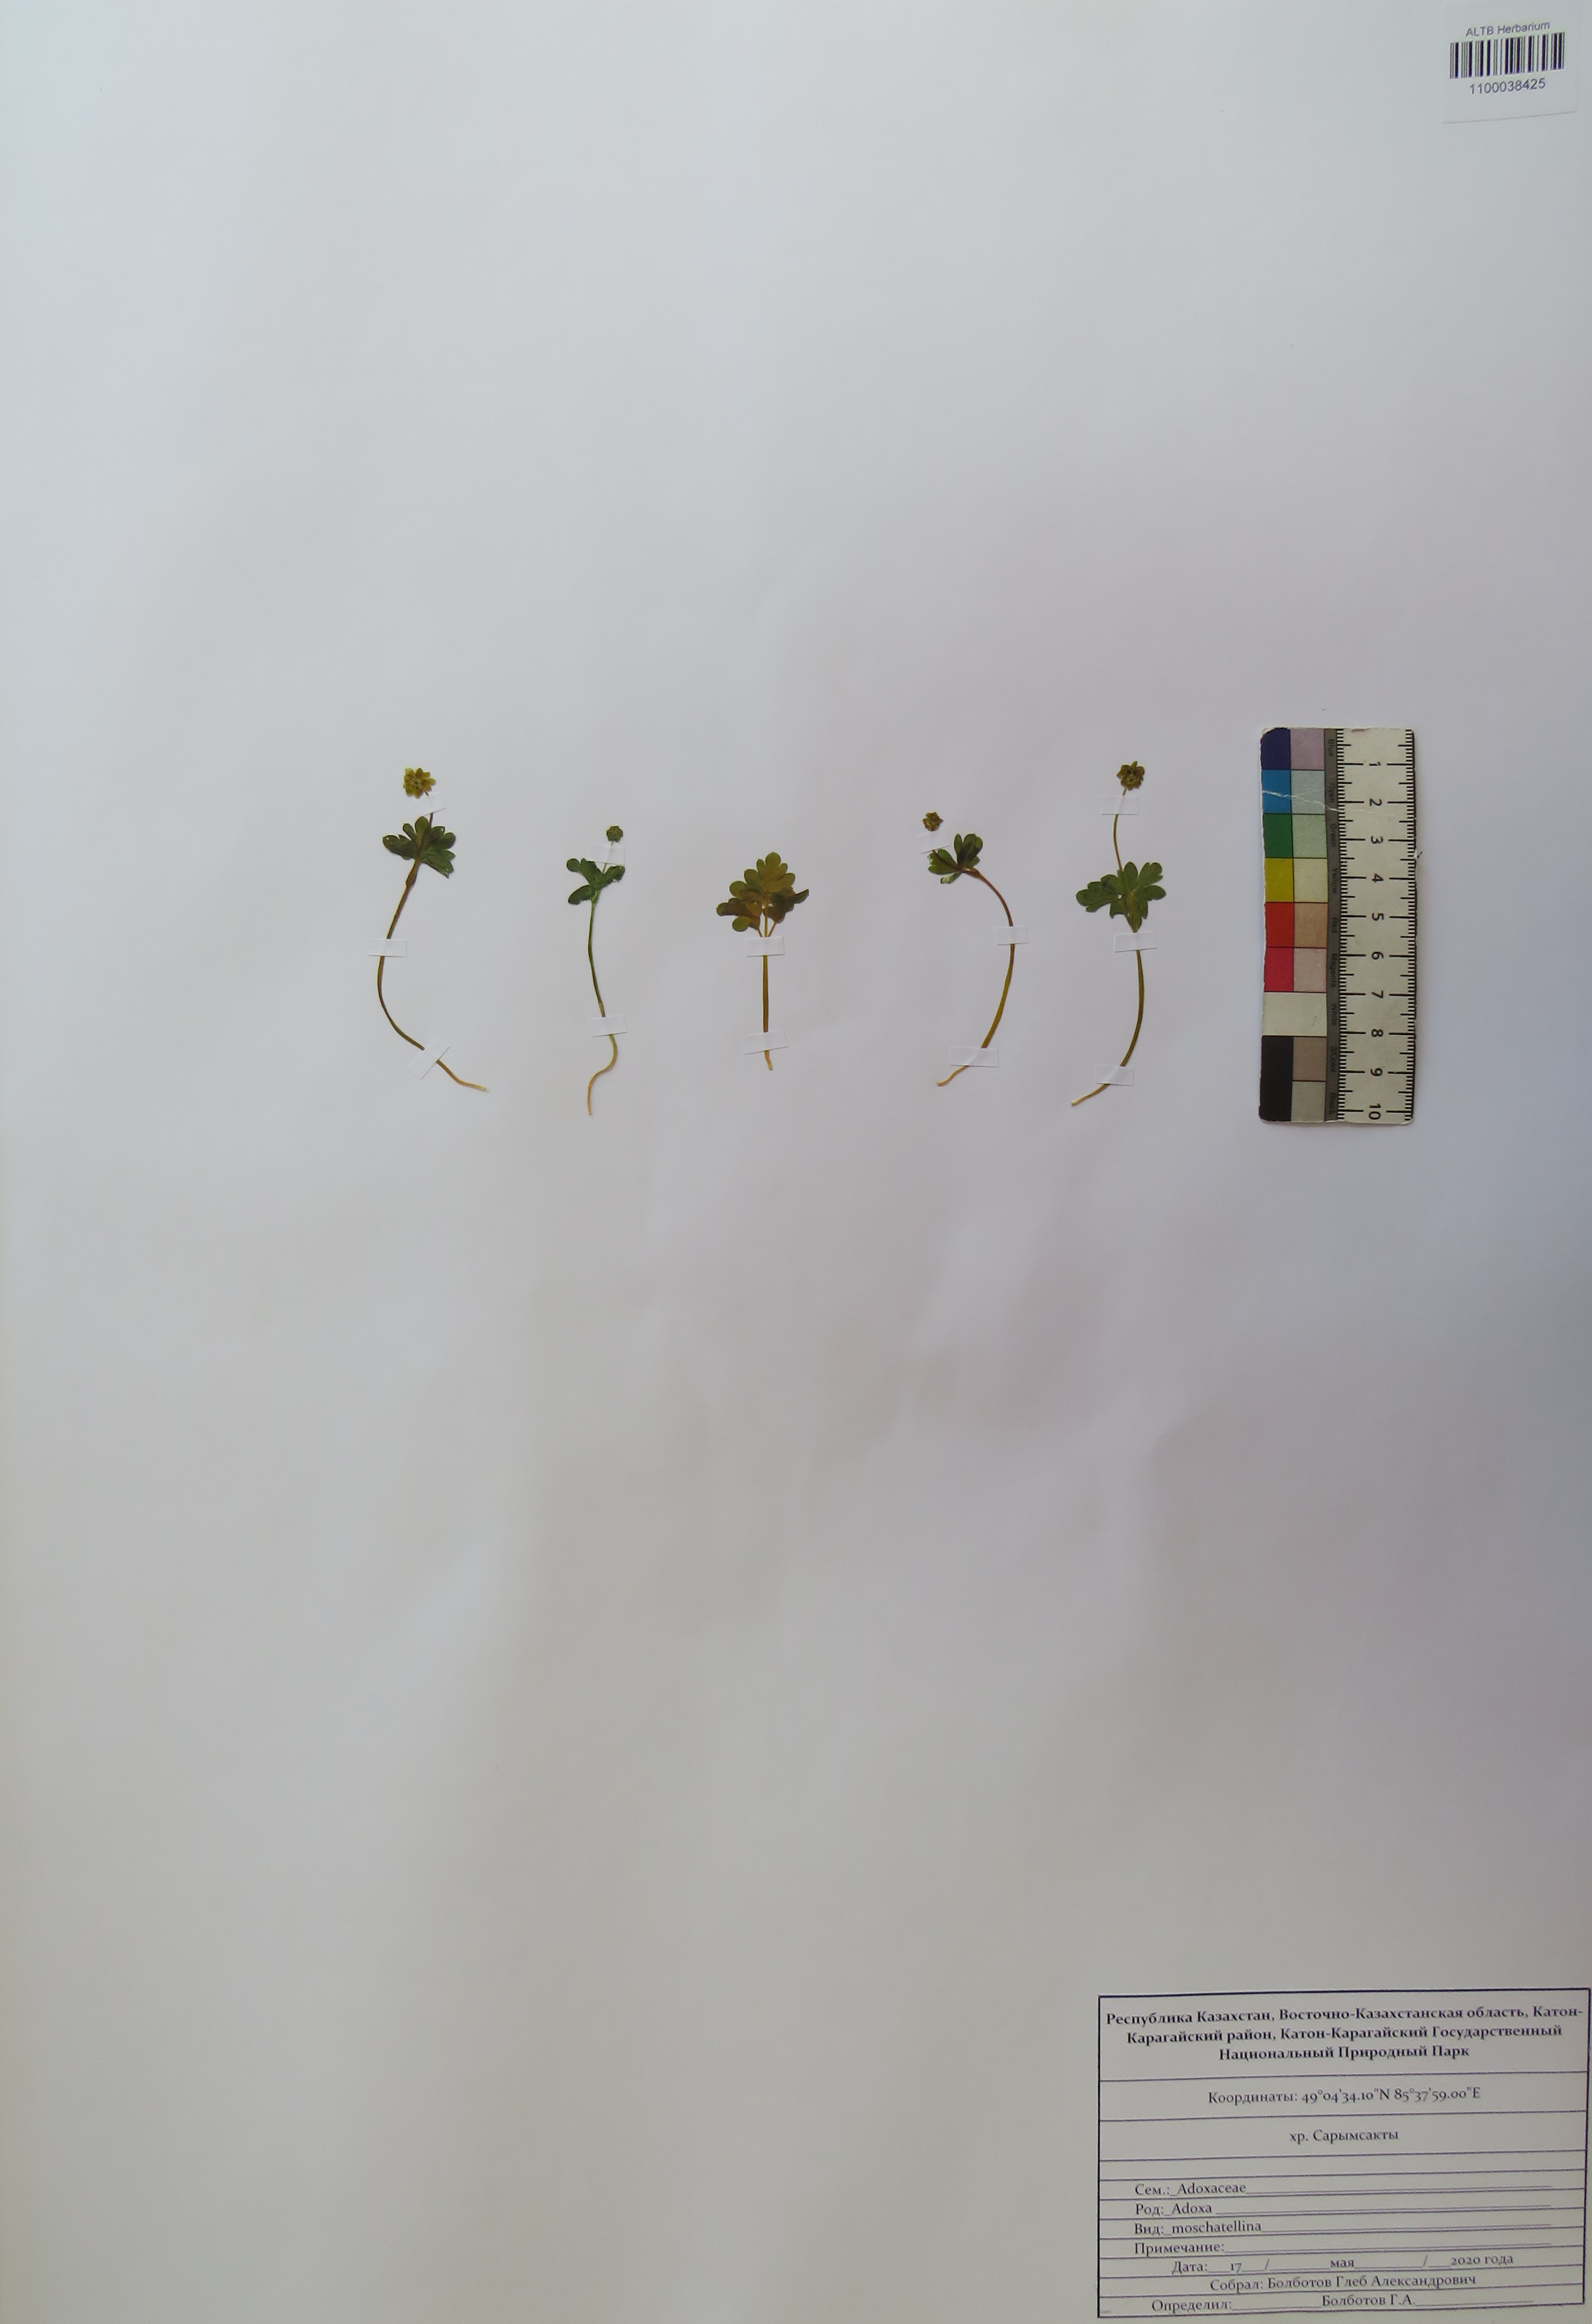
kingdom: Plantae
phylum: Tracheophyta
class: Magnoliopsida
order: Dipsacales
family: Viburnaceae
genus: Adoxa
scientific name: Adoxa moschatellina
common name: Moschatel
